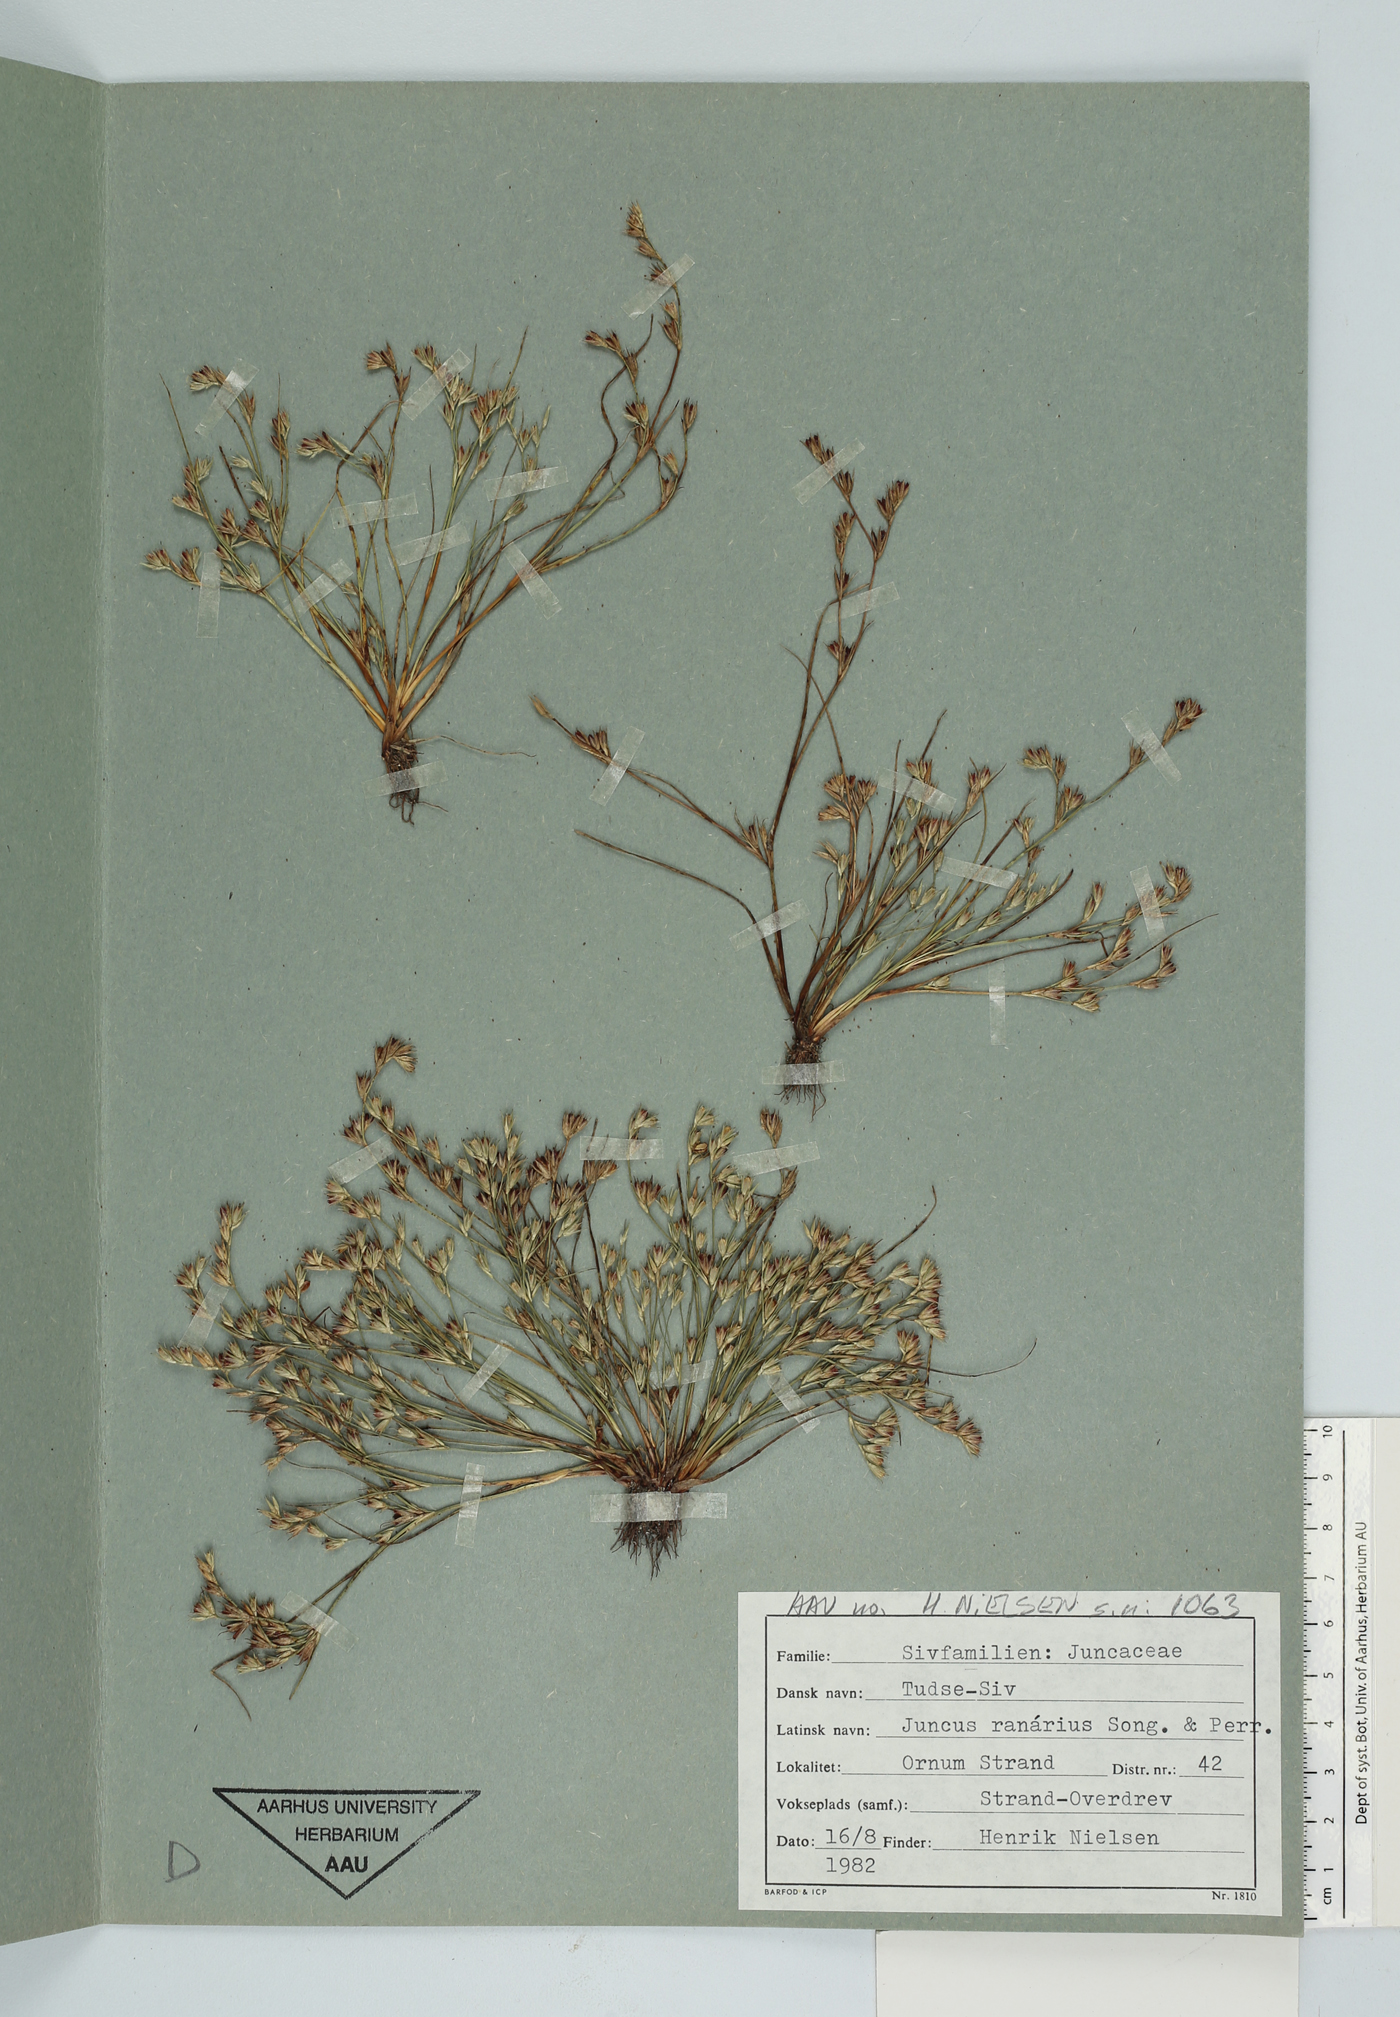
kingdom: Plantae
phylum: Tracheophyta
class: Liliopsida
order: Poales
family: Juncaceae
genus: Juncus
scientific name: Juncus ranarius
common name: Frog rush
